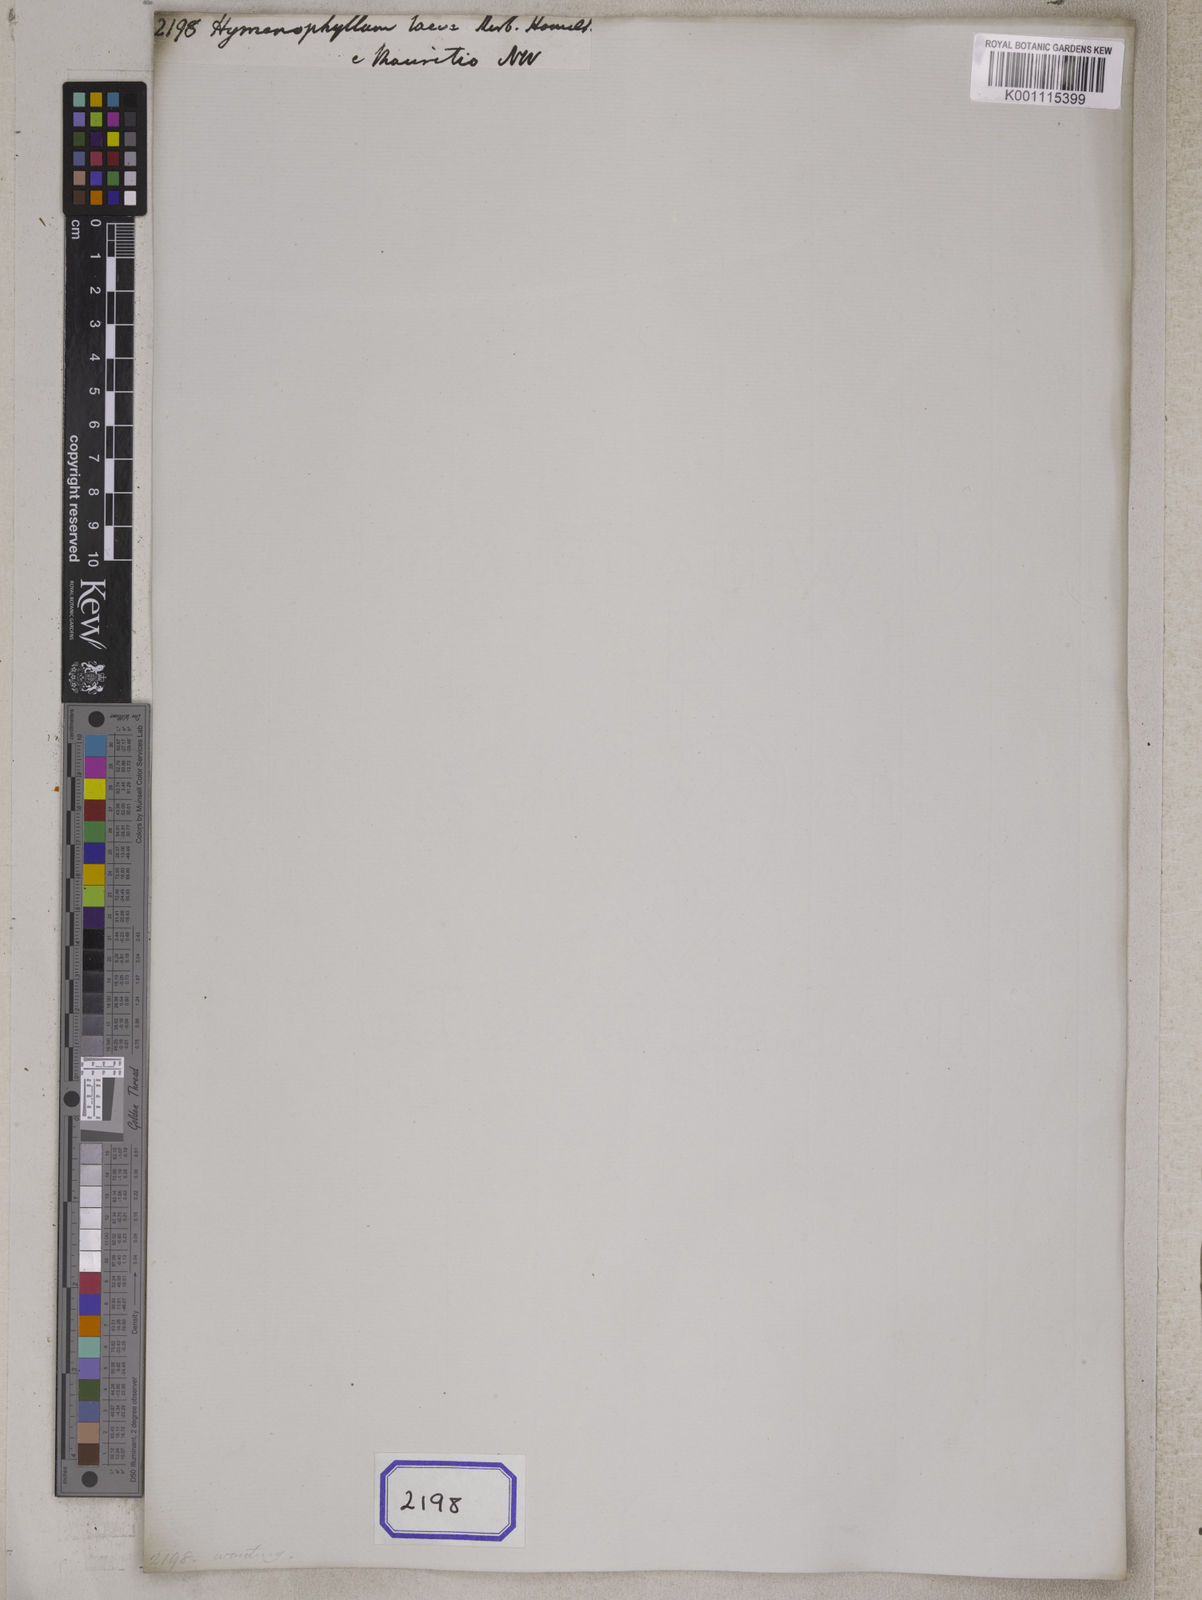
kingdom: Plantae
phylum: Tracheophyta
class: Polypodiopsida
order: Hymenophyllales
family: Hymenophyllaceae
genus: Hymenophyllum
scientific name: Hymenophyllum laeve
